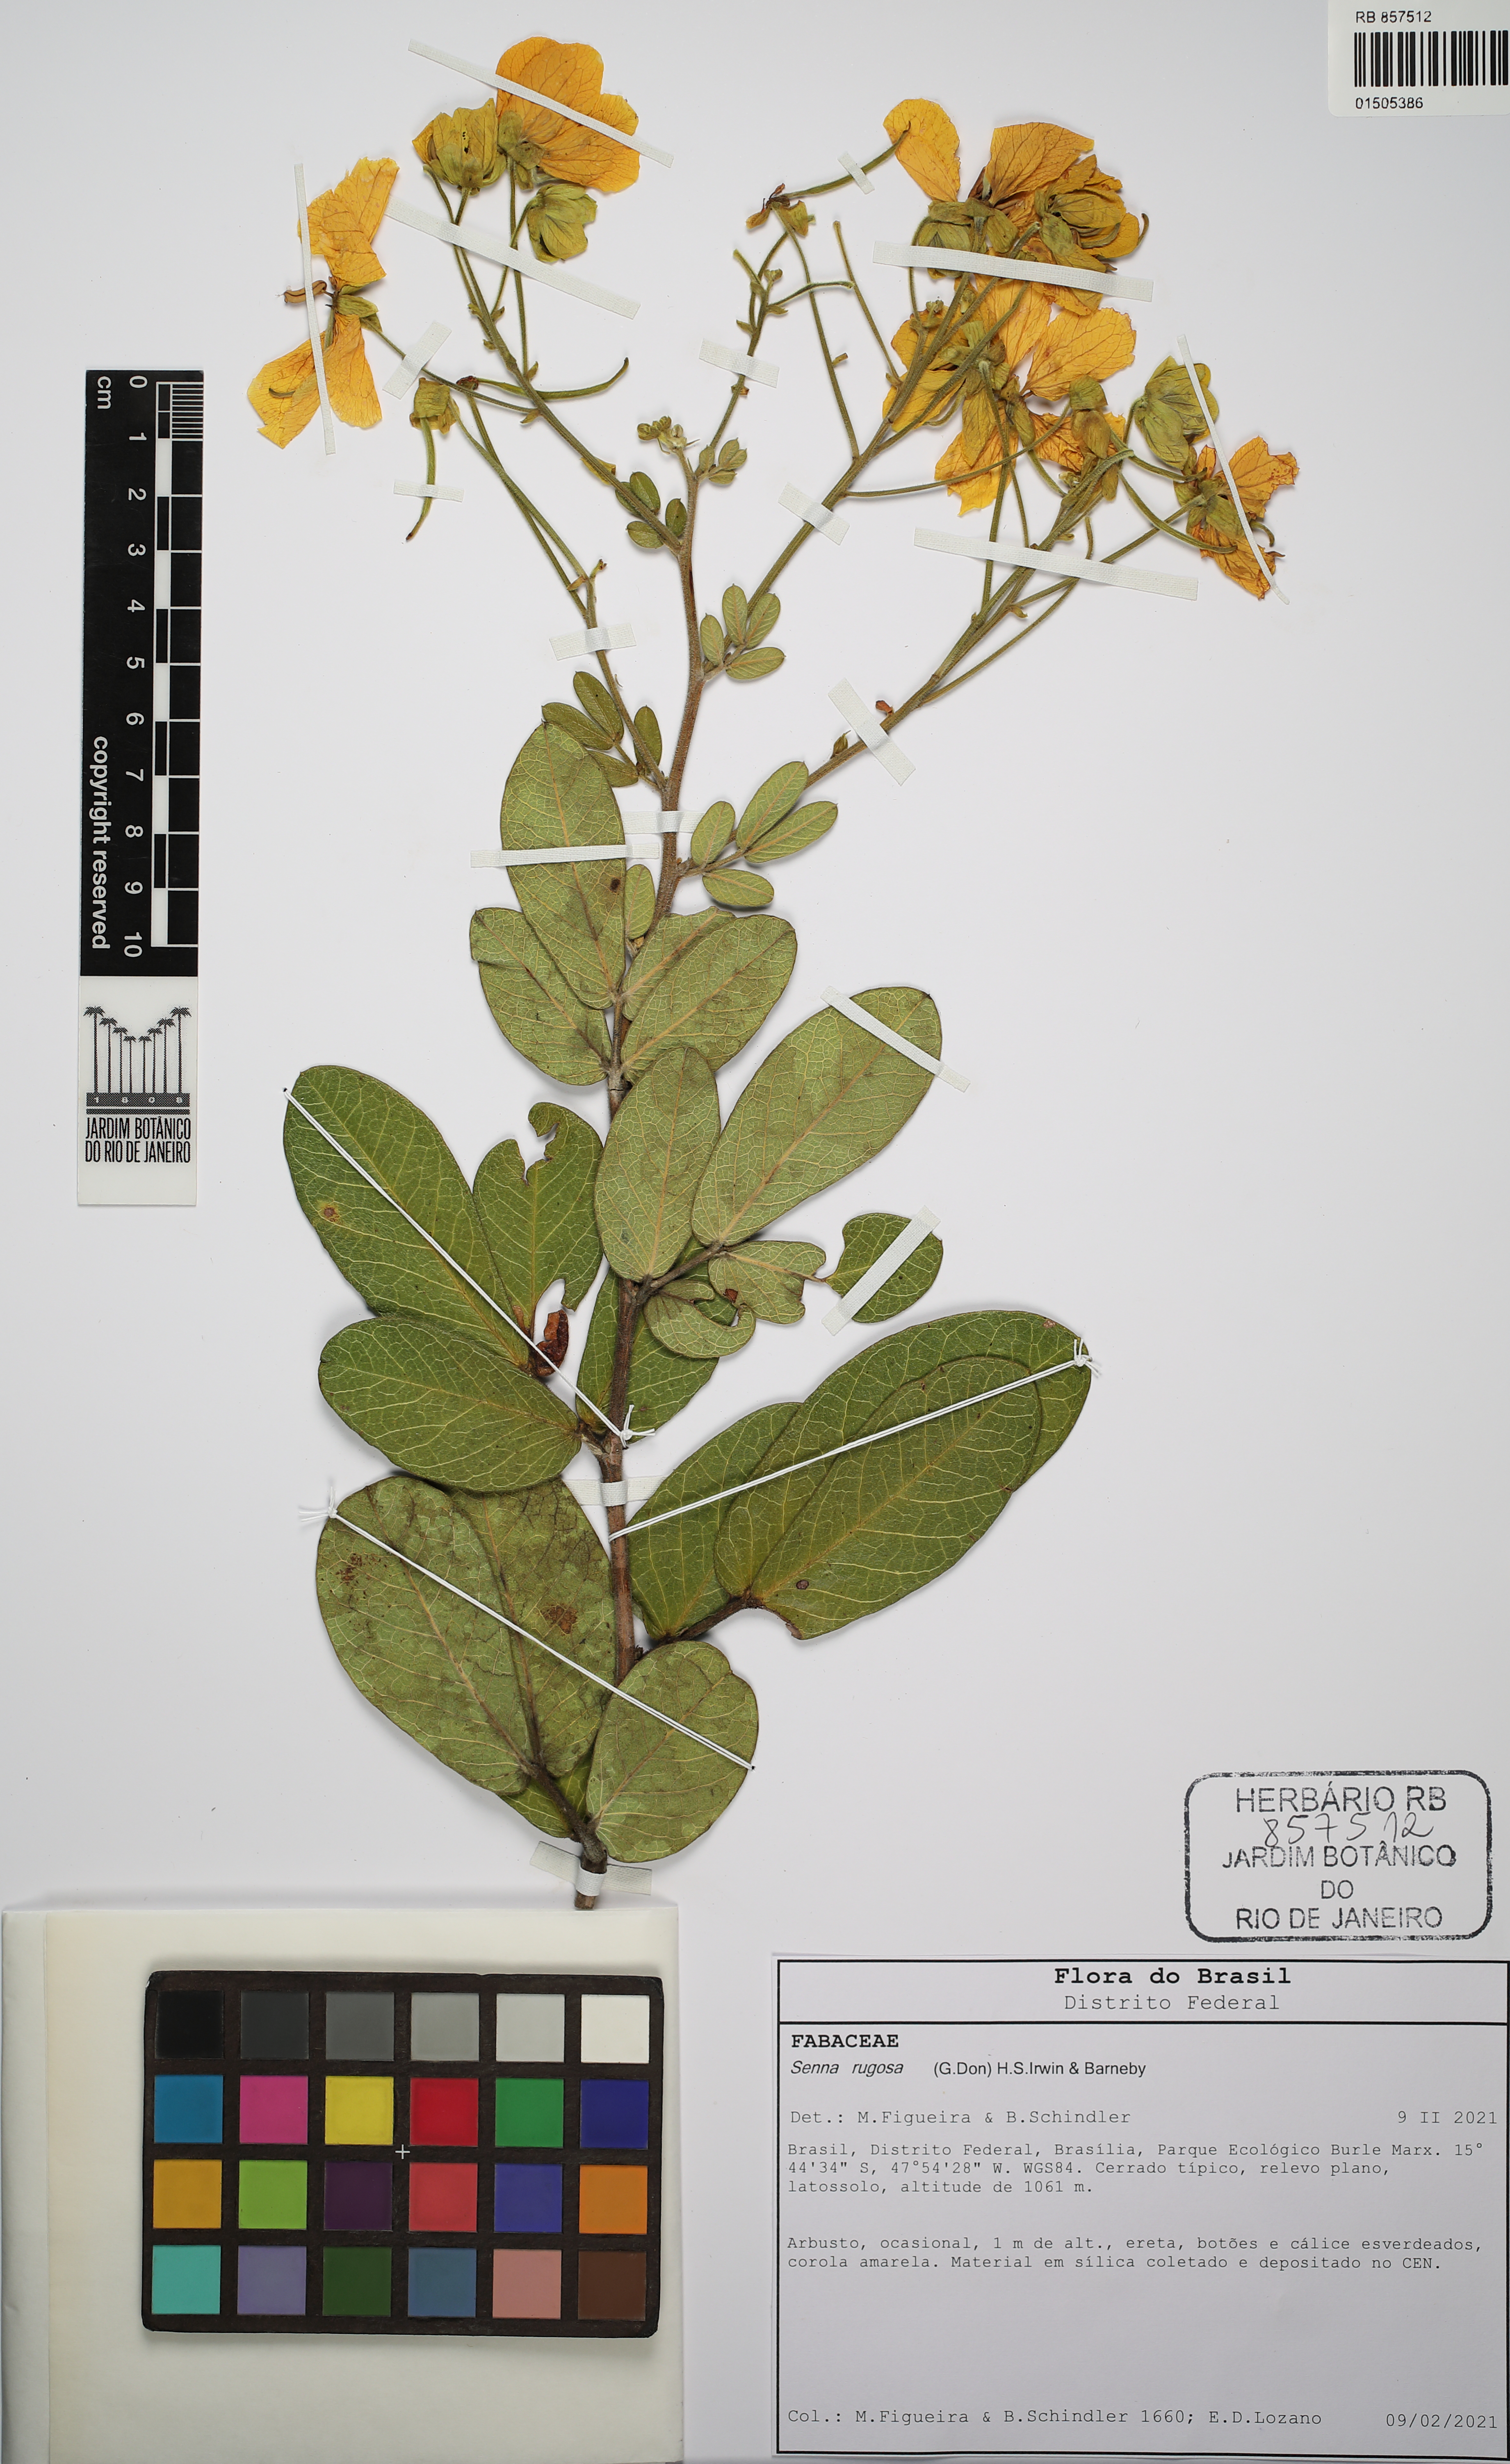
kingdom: Plantae
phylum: Tracheophyta
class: Magnoliopsida
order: Fabales
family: Fabaceae
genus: Senna
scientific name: Senna rugosa
